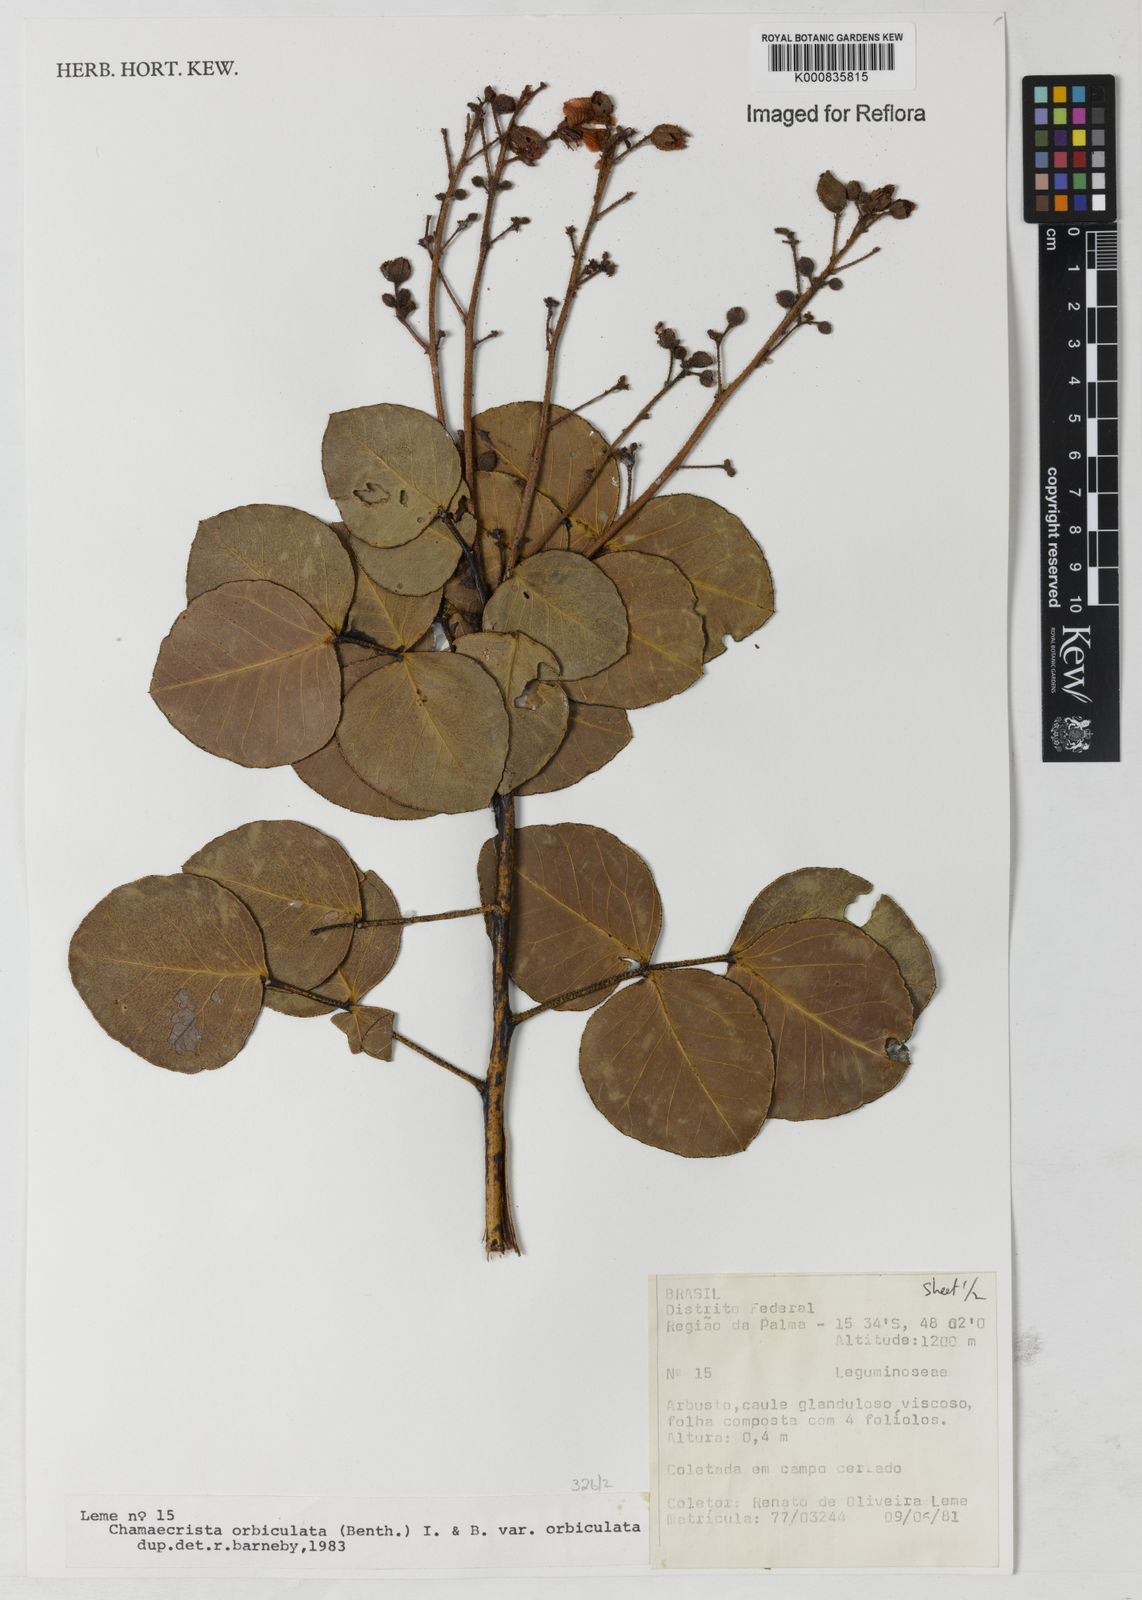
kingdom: Plantae
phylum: Tracheophyta
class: Magnoliopsida
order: Fabales
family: Fabaceae
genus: Chamaecrista
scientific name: Chamaecrista orbiculata
